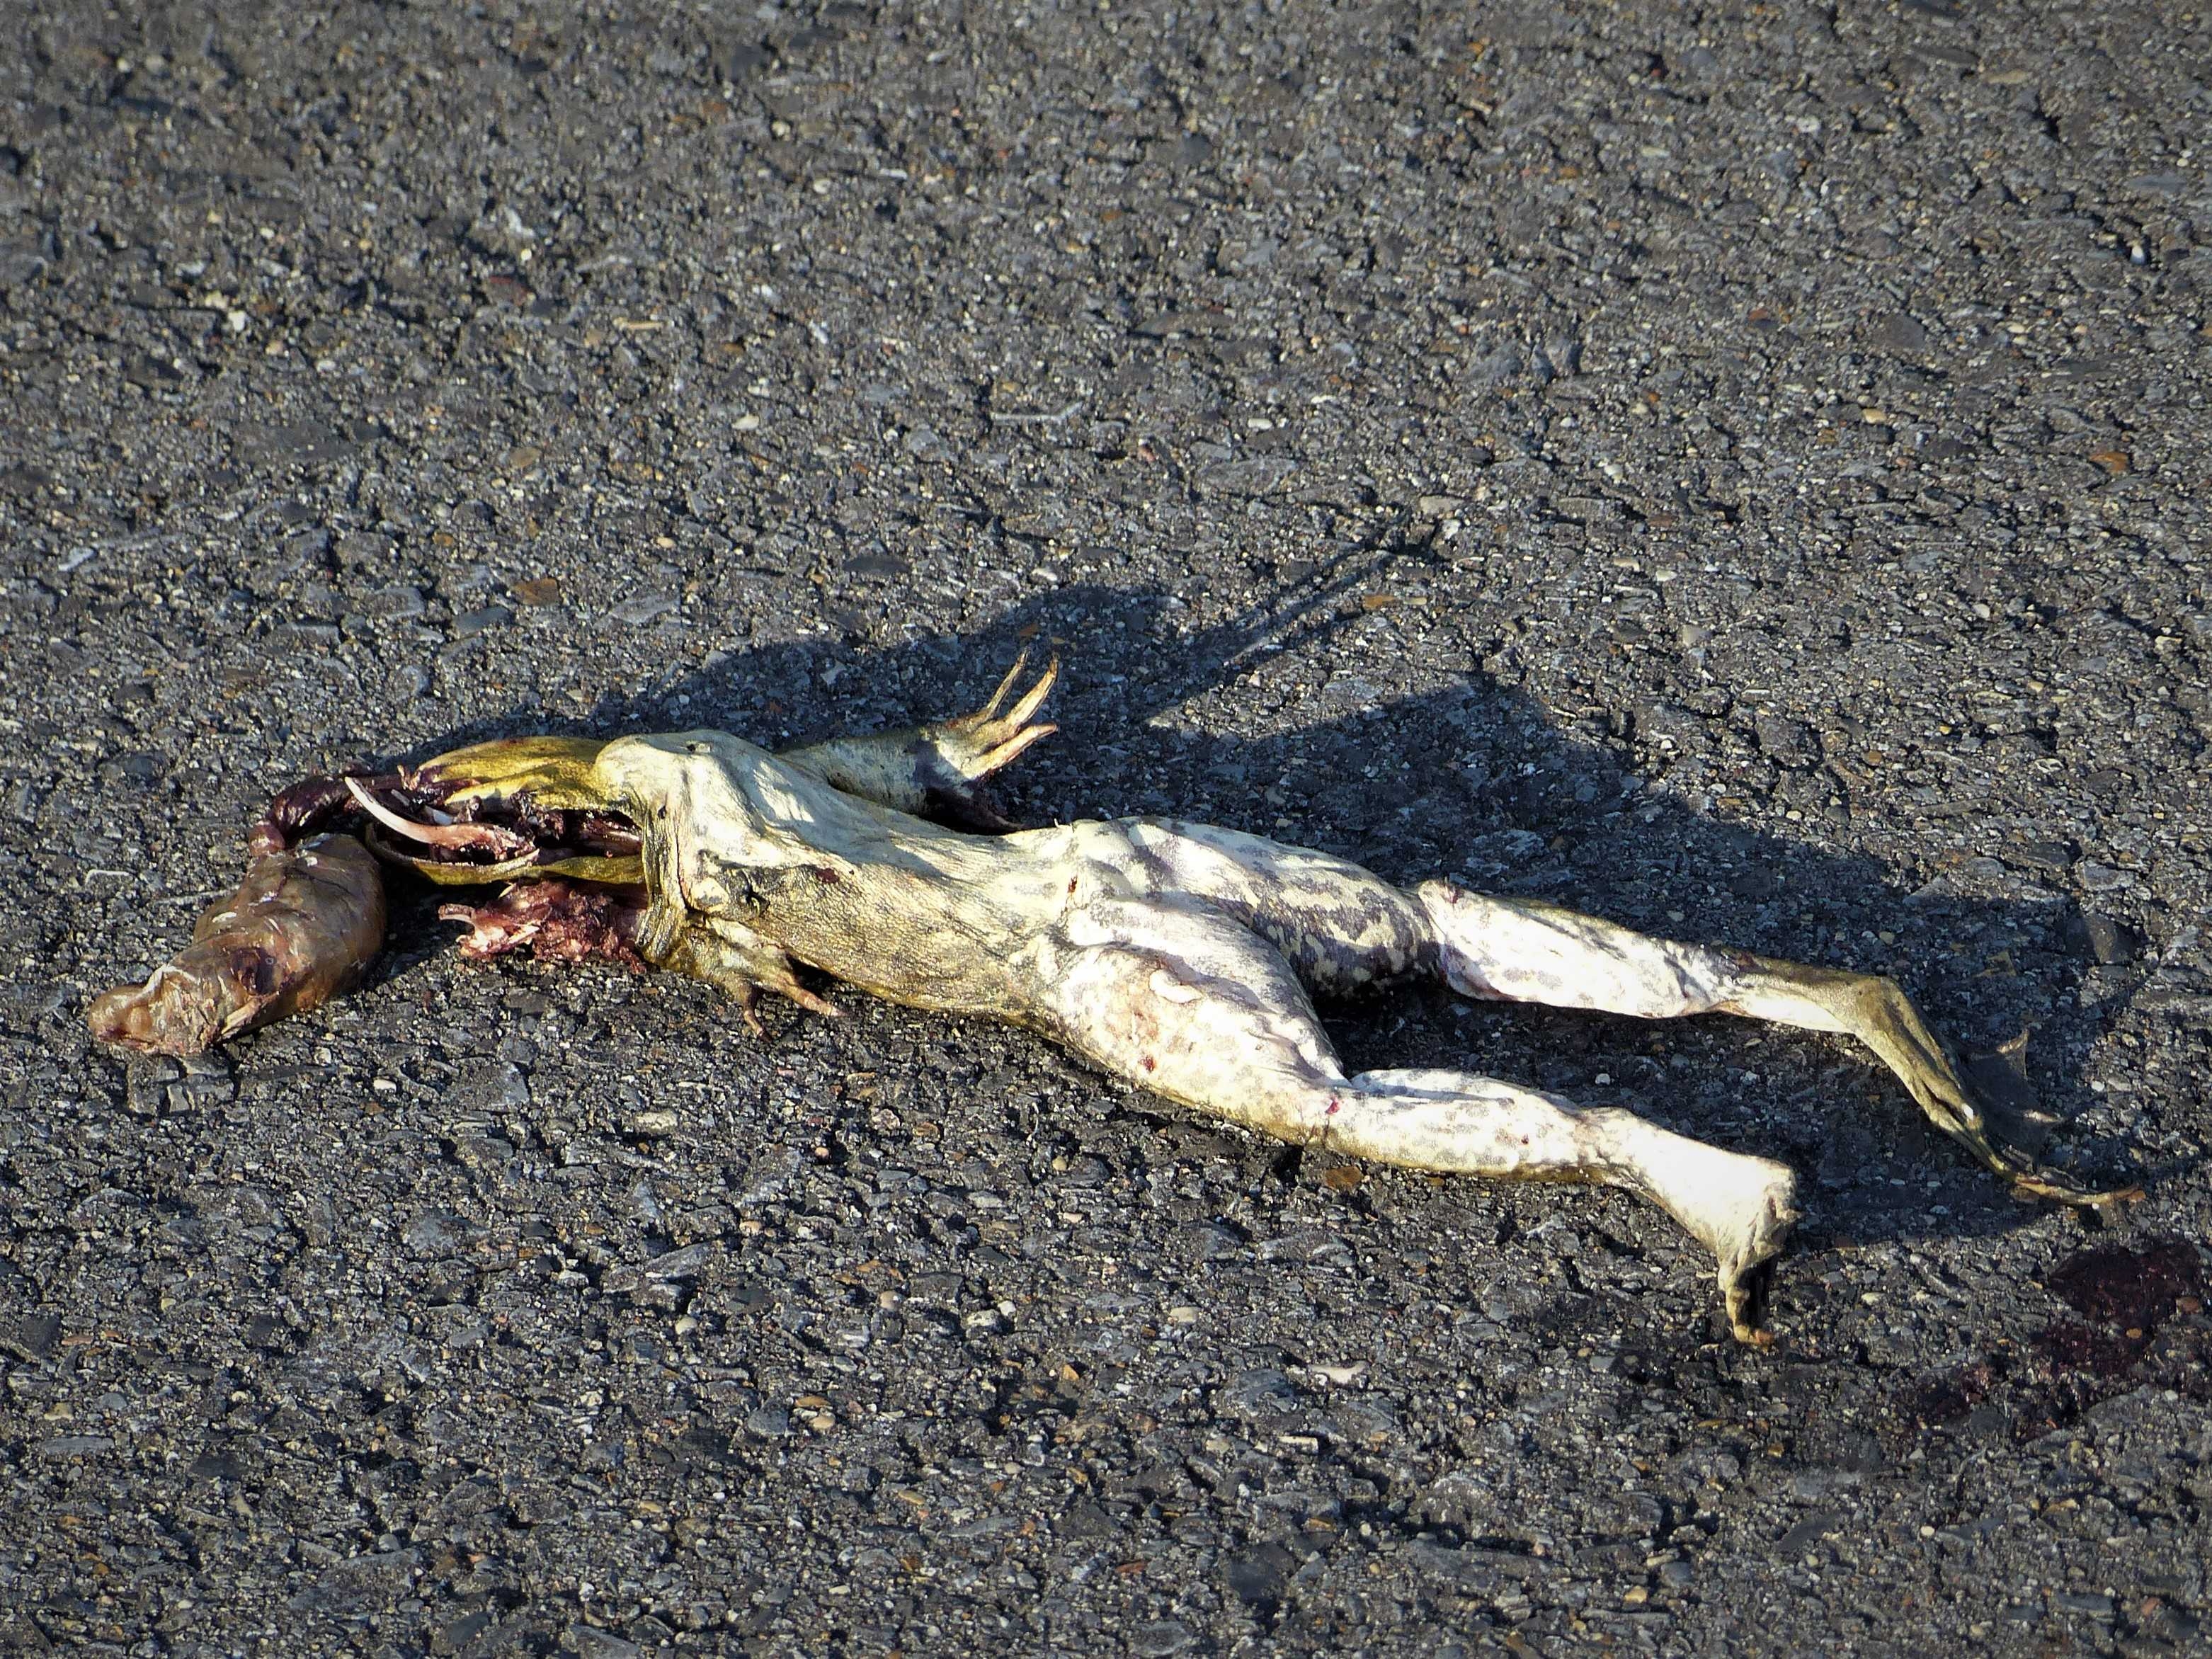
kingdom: Animalia
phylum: Chordata
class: Amphibia
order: Anura
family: Ranidae
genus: Lithobates
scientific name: Lithobates catesbeianus
